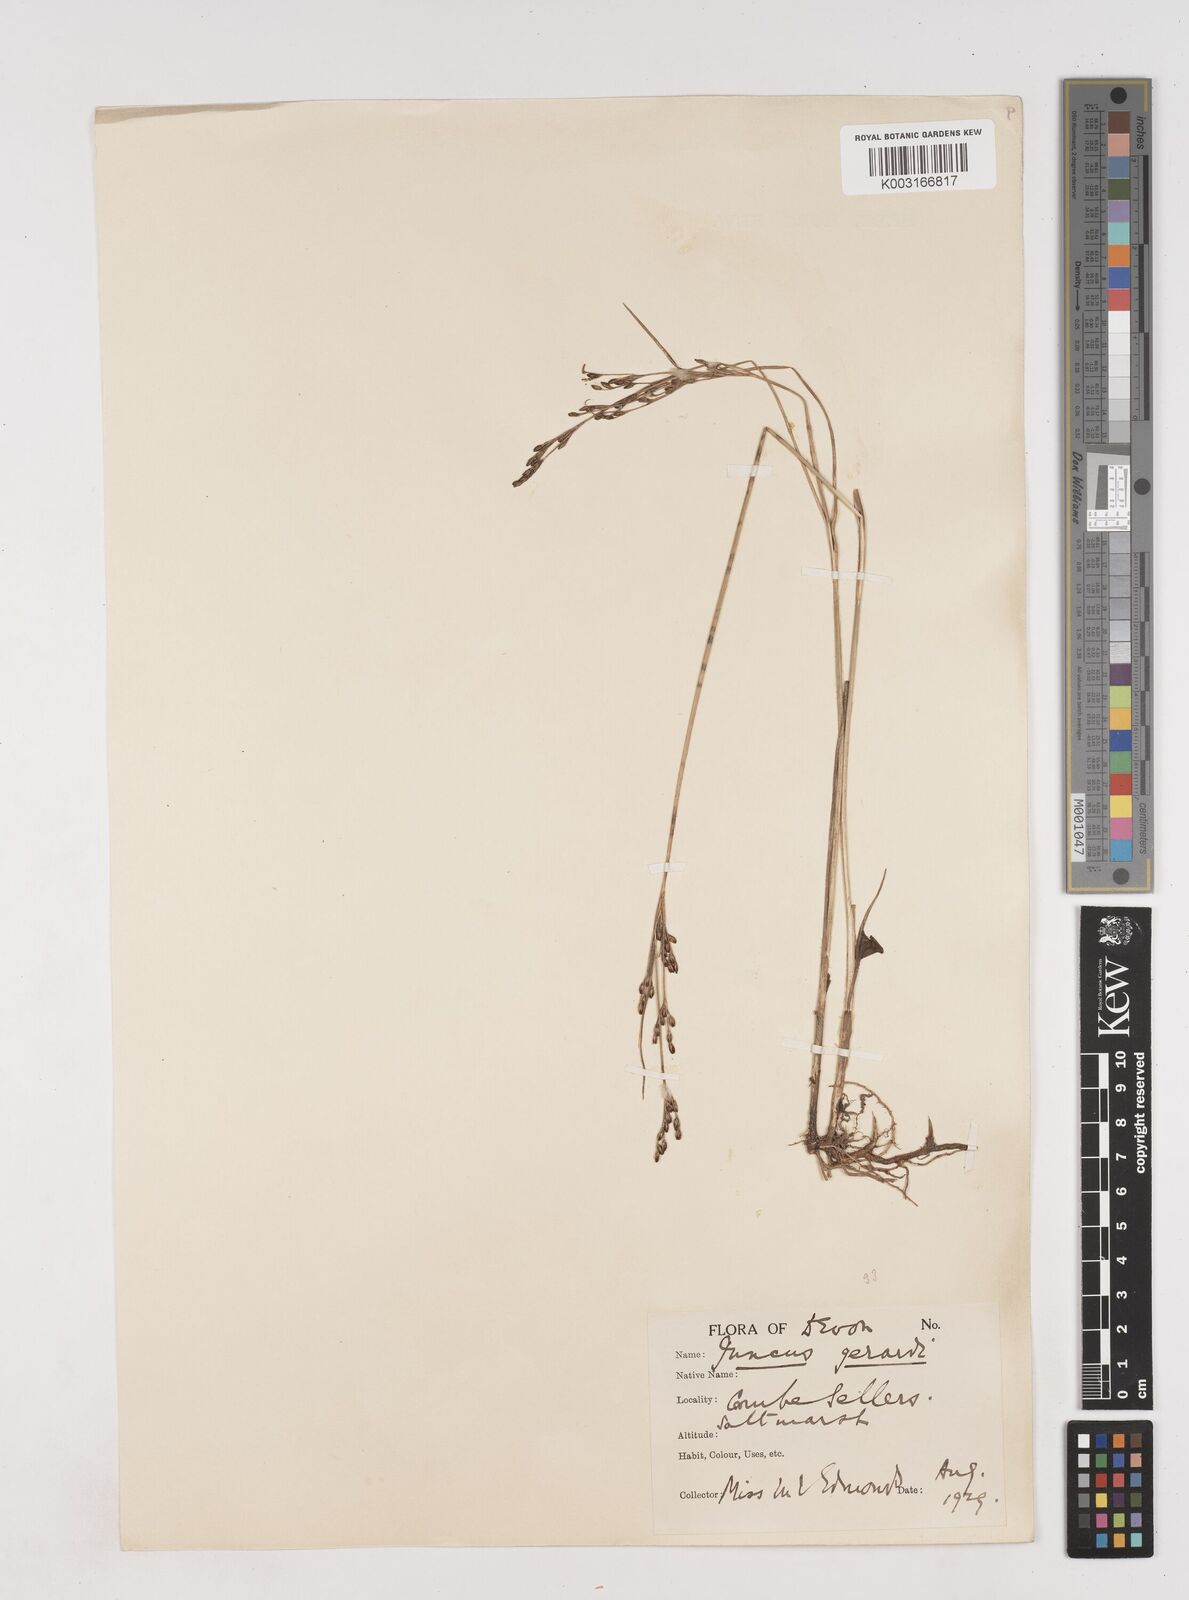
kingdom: Plantae
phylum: Tracheophyta
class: Liliopsida
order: Poales
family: Juncaceae
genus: Juncus
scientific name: Juncus gerardi
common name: Saltmarsh rush
